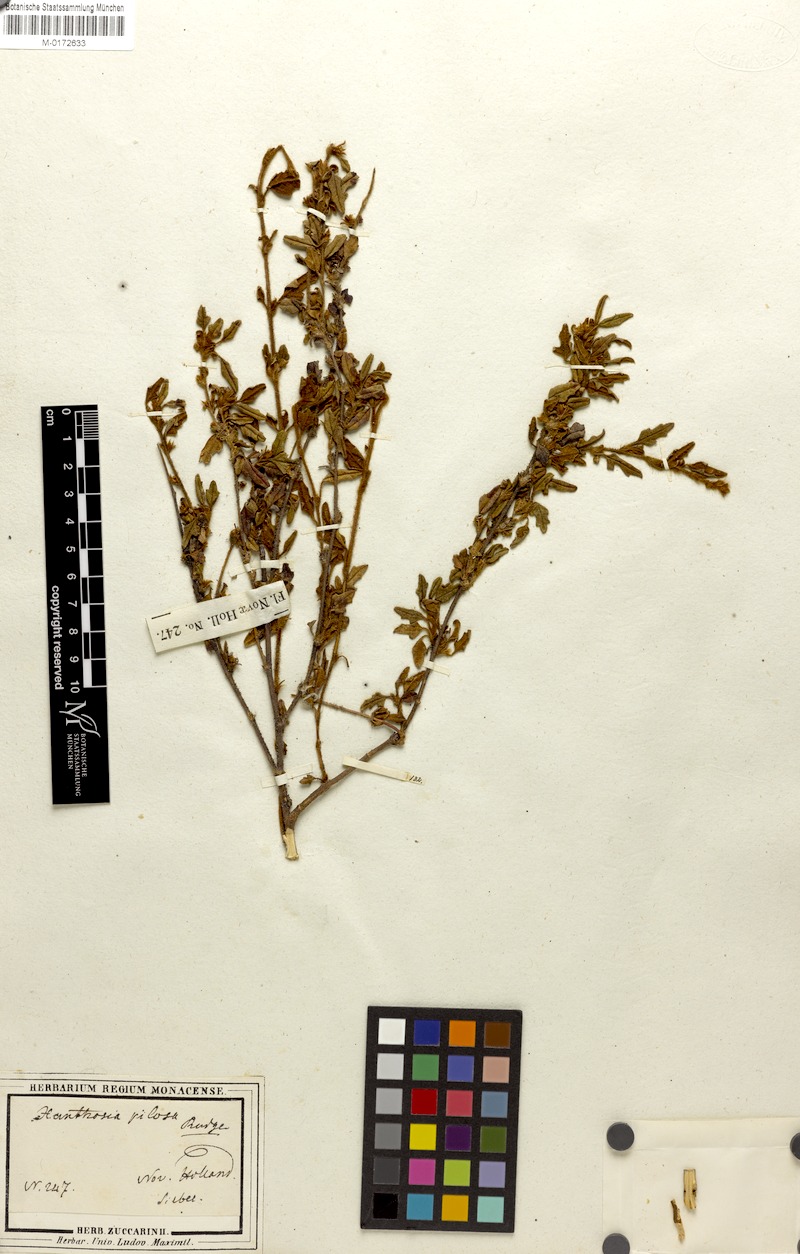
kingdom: Plantae
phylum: Tracheophyta
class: Magnoliopsida
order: Apiales
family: Apiaceae
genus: Xanthosia
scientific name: Xanthosia pilosa
